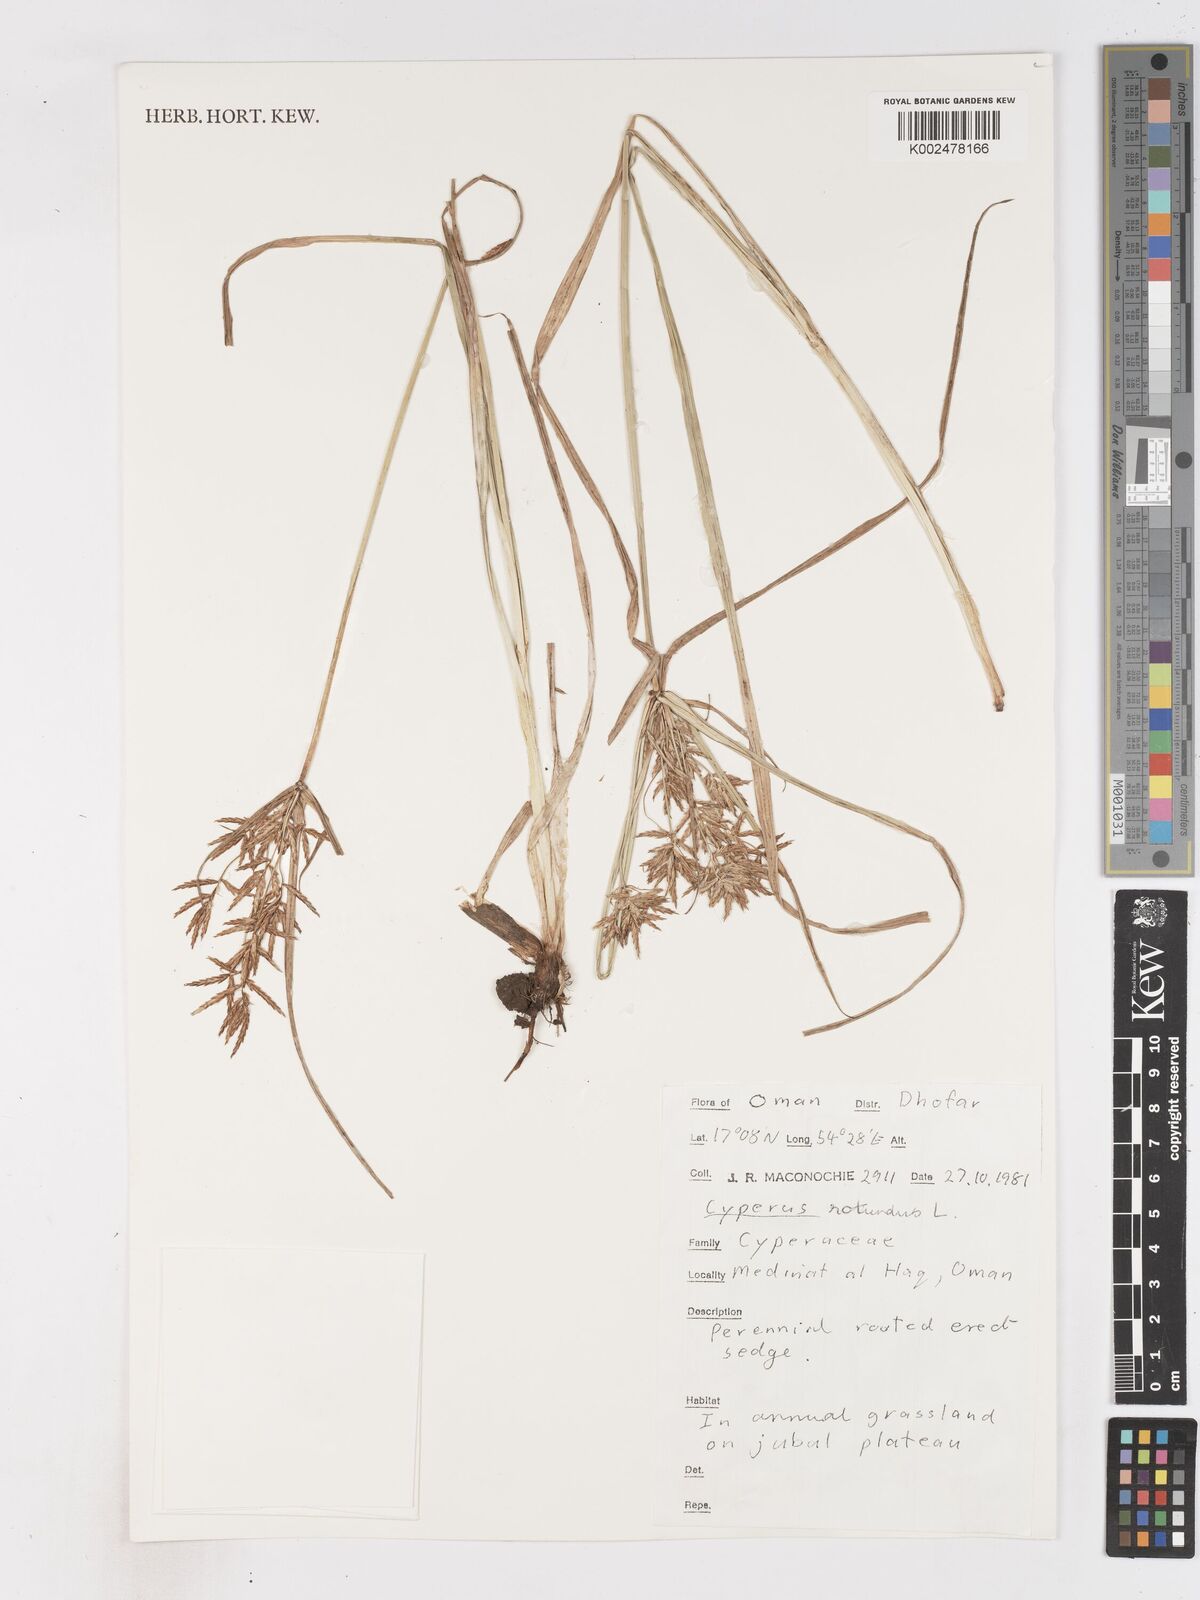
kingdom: Plantae
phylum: Tracheophyta
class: Liliopsida
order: Poales
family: Cyperaceae
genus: Cyperus
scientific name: Cyperus nubicus
